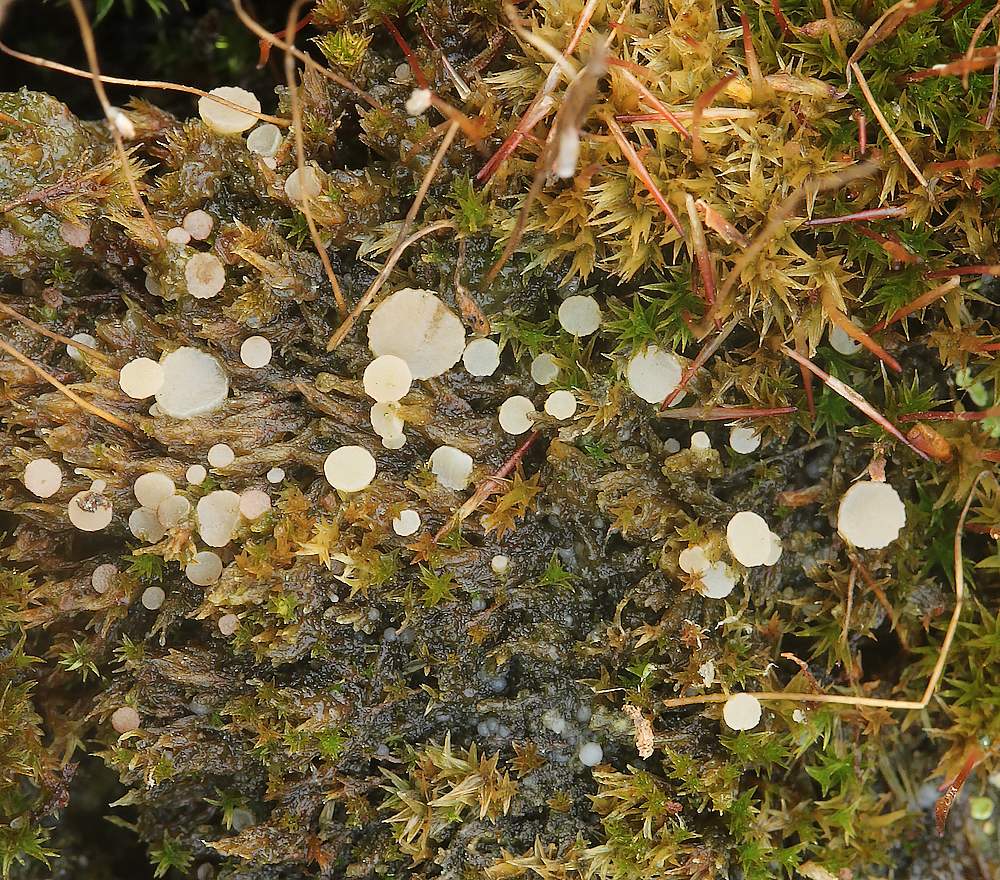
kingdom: Fungi
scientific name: Fungi
